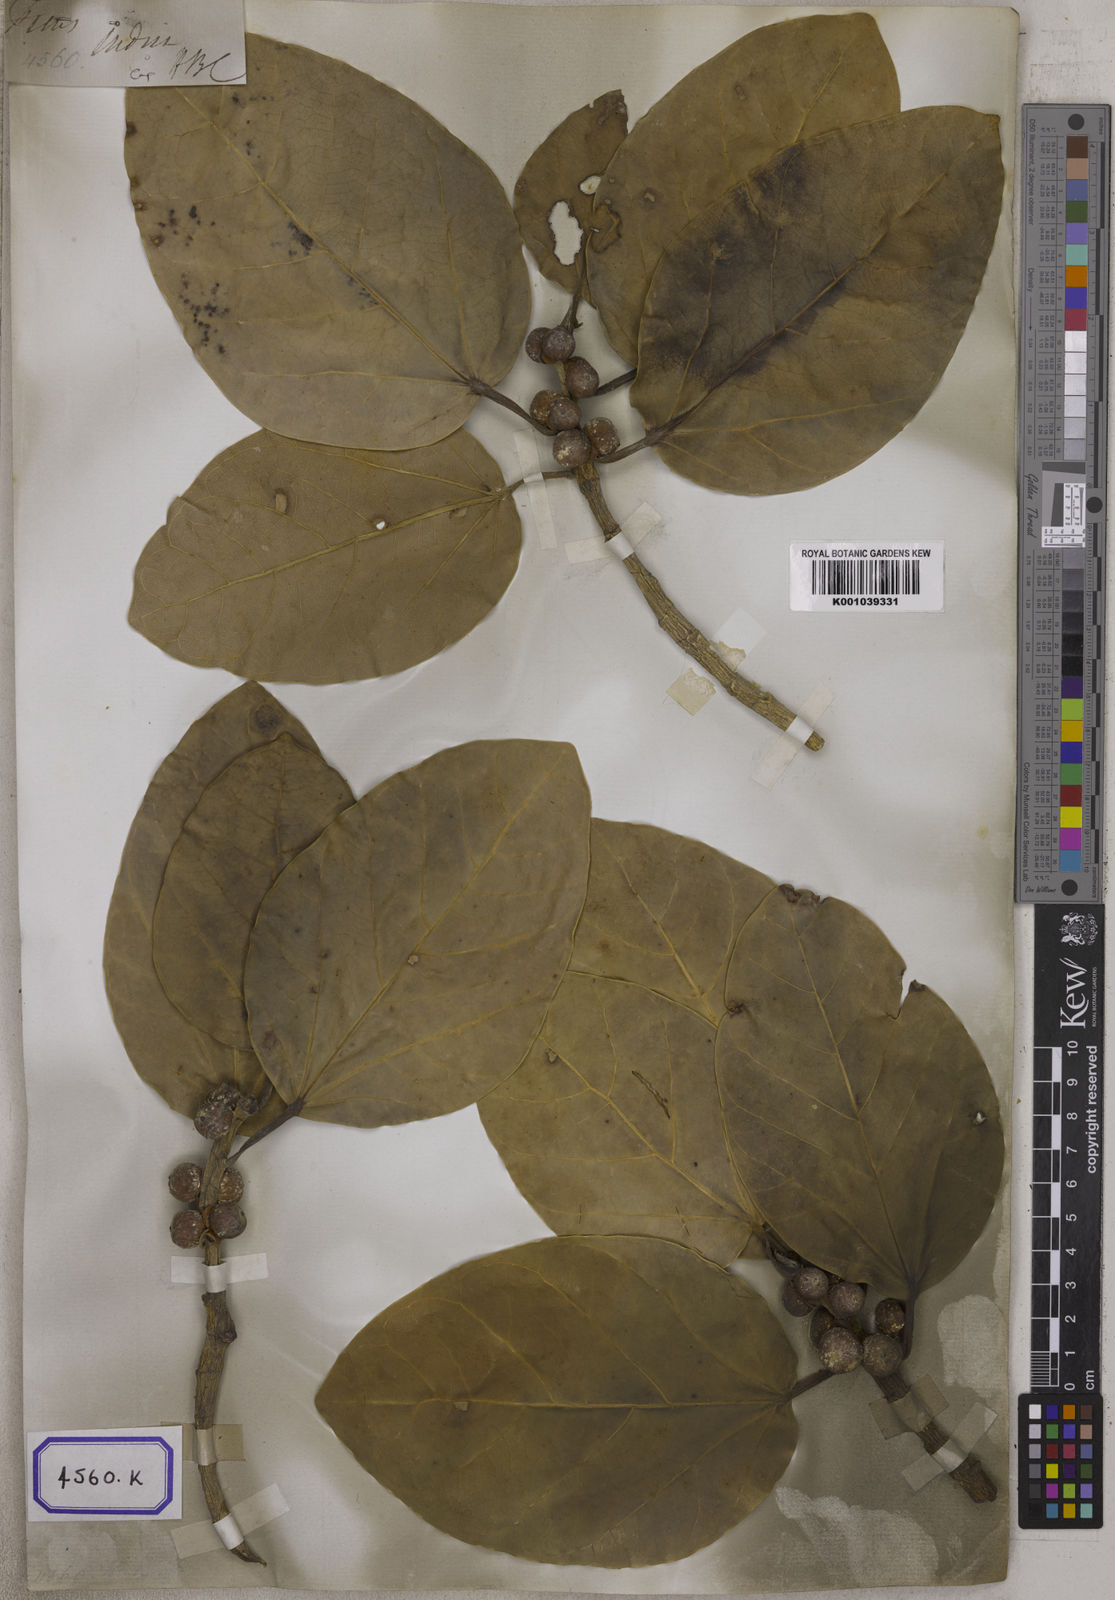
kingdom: Plantae
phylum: Tracheophyta
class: Magnoliopsida
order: Rosales
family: Moraceae
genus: Ficus
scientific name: Ficus
